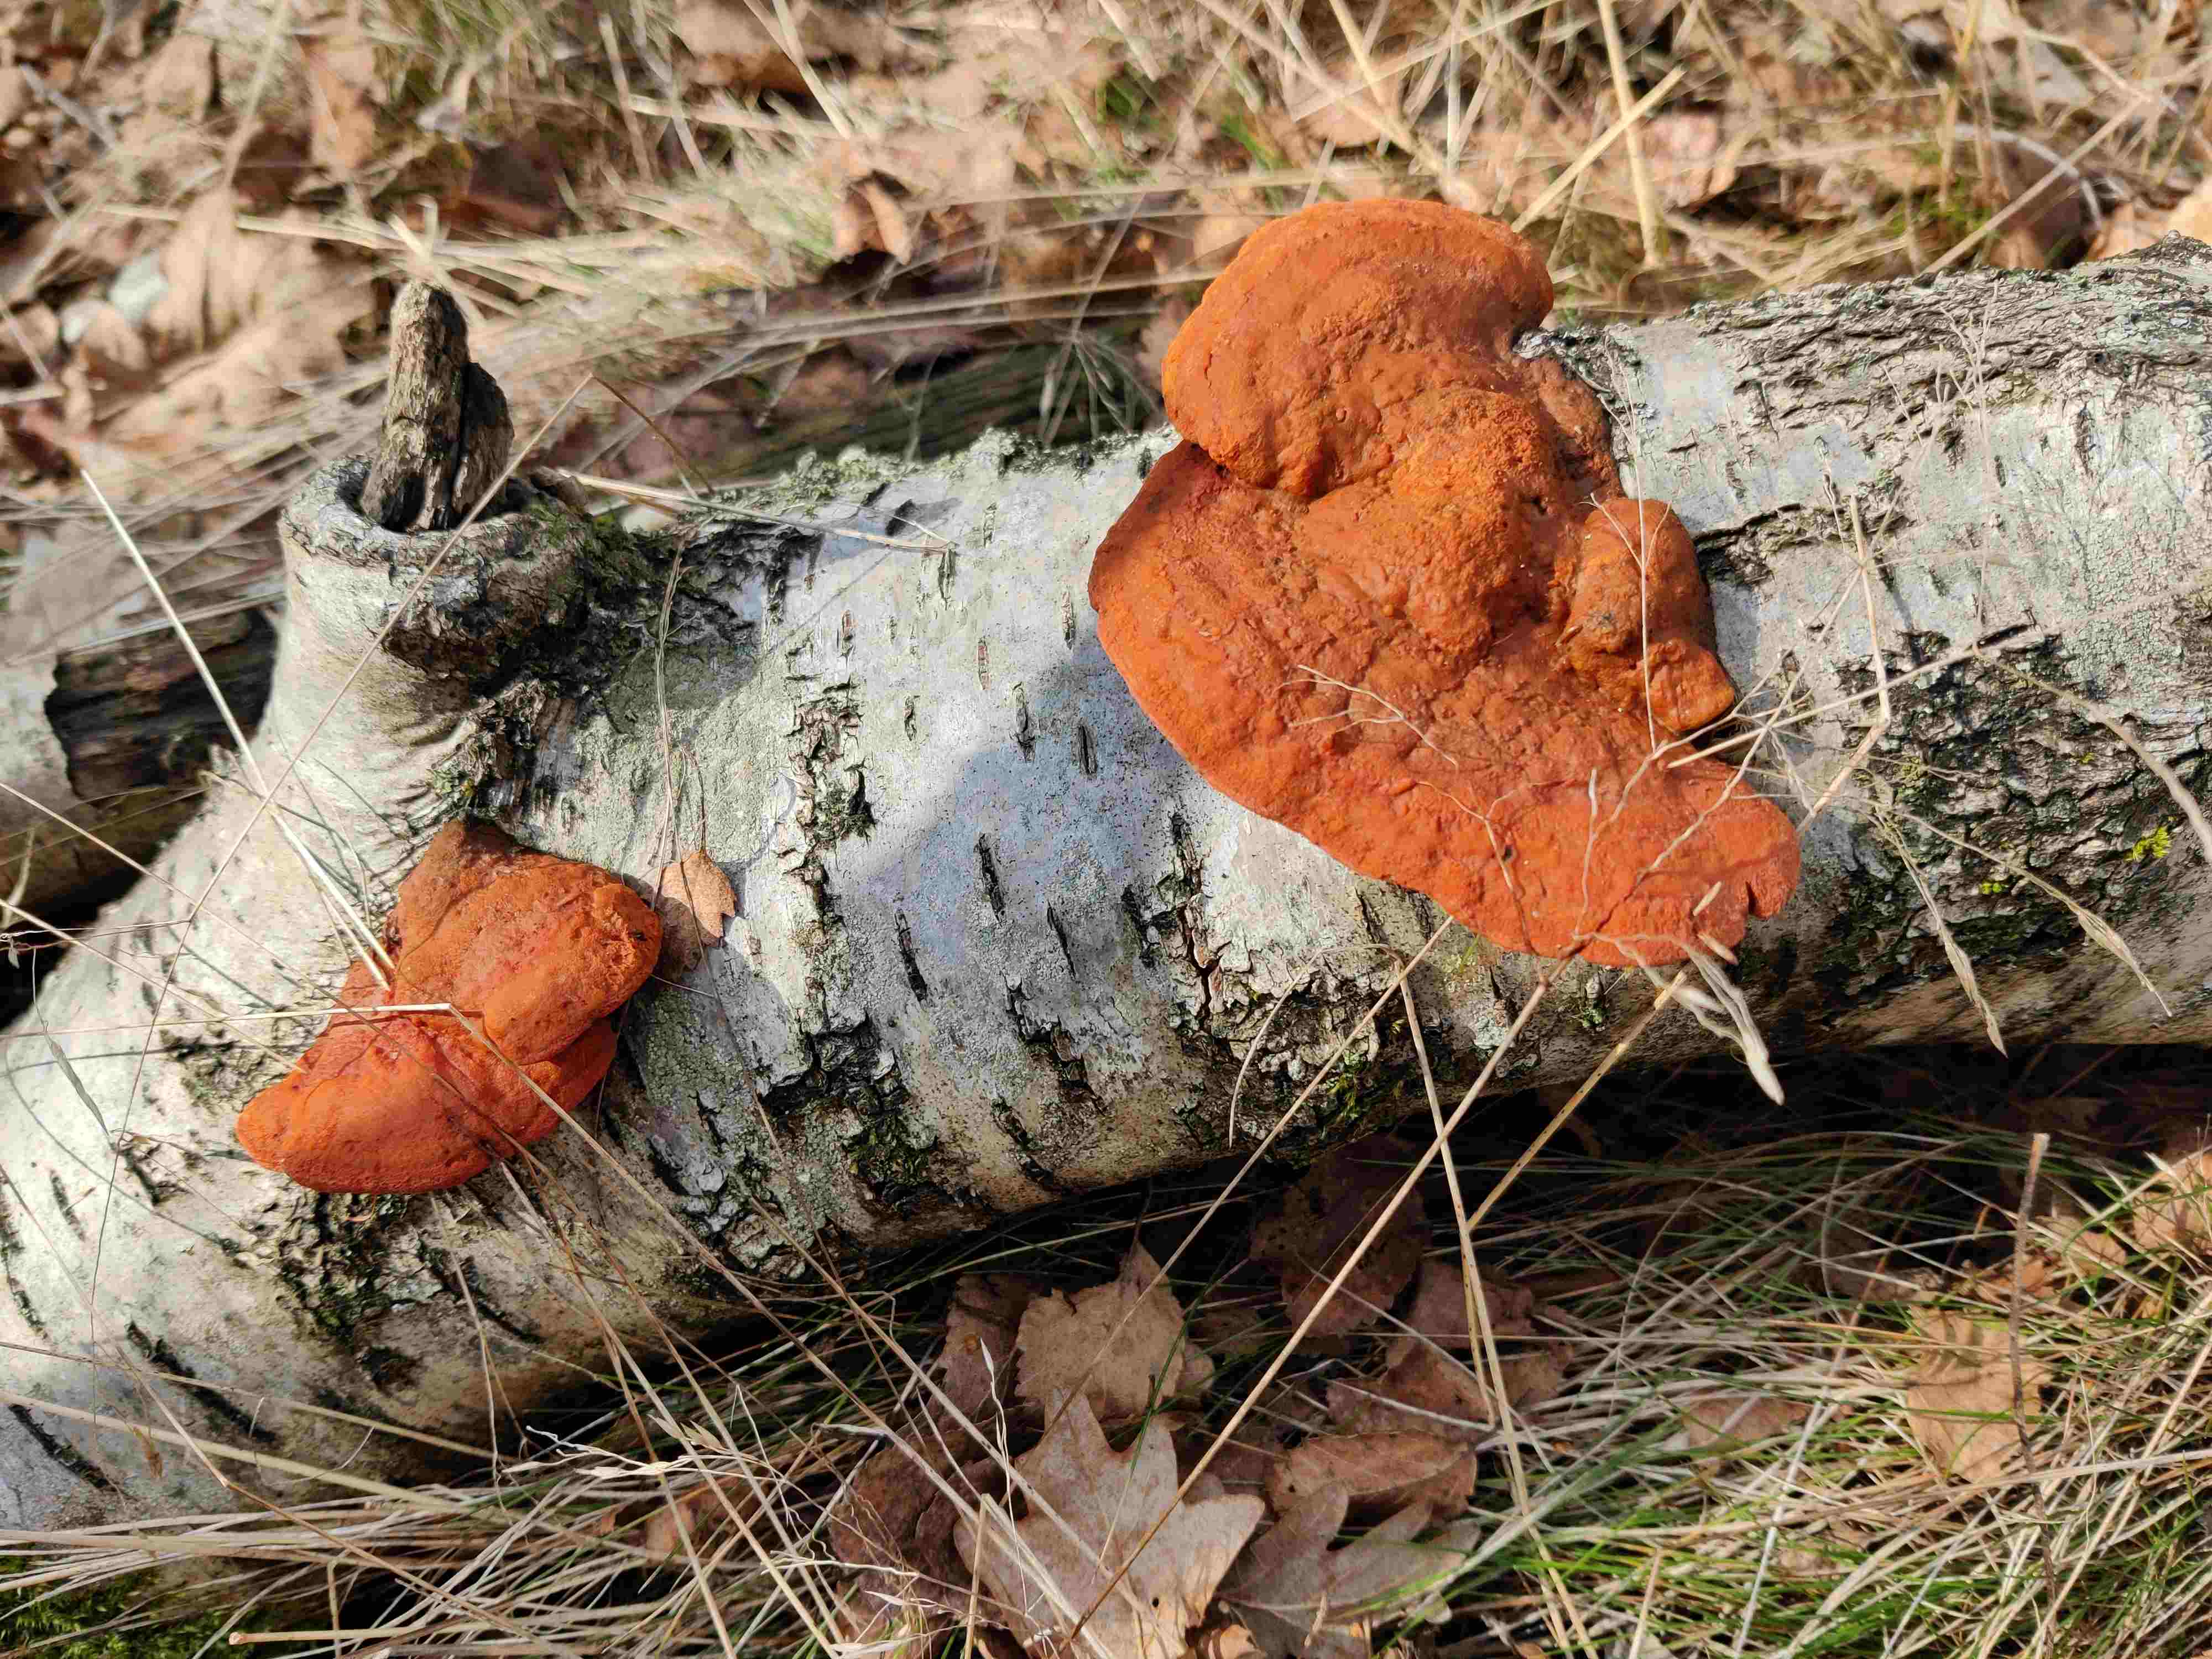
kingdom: Fungi
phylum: Basidiomycota
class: Agaricomycetes
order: Polyporales
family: Polyporaceae
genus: Trametes
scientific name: Trametes cinnabarina
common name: cinnoberporesvamp
